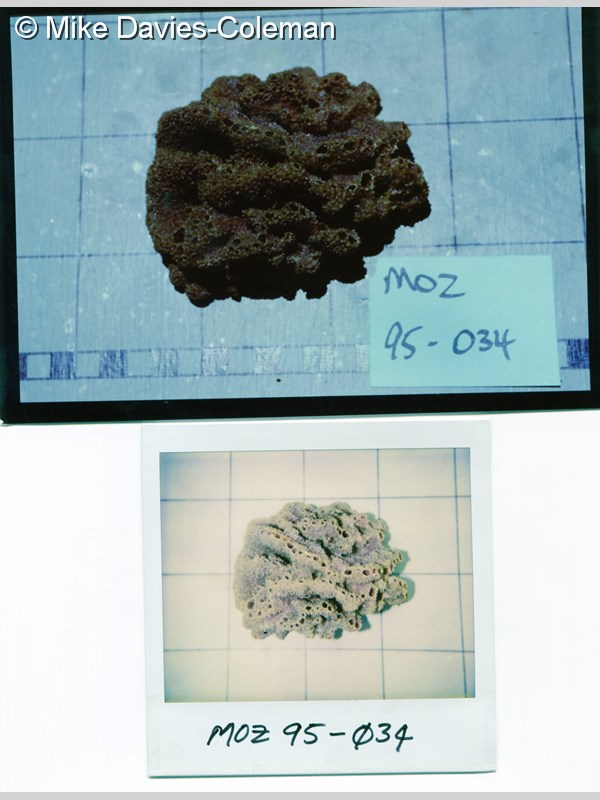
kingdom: Animalia
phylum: Porifera
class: Demospongiae
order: Suberitida
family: Halichondriidae
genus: Hymeniacidon
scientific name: Hymeniacidon
